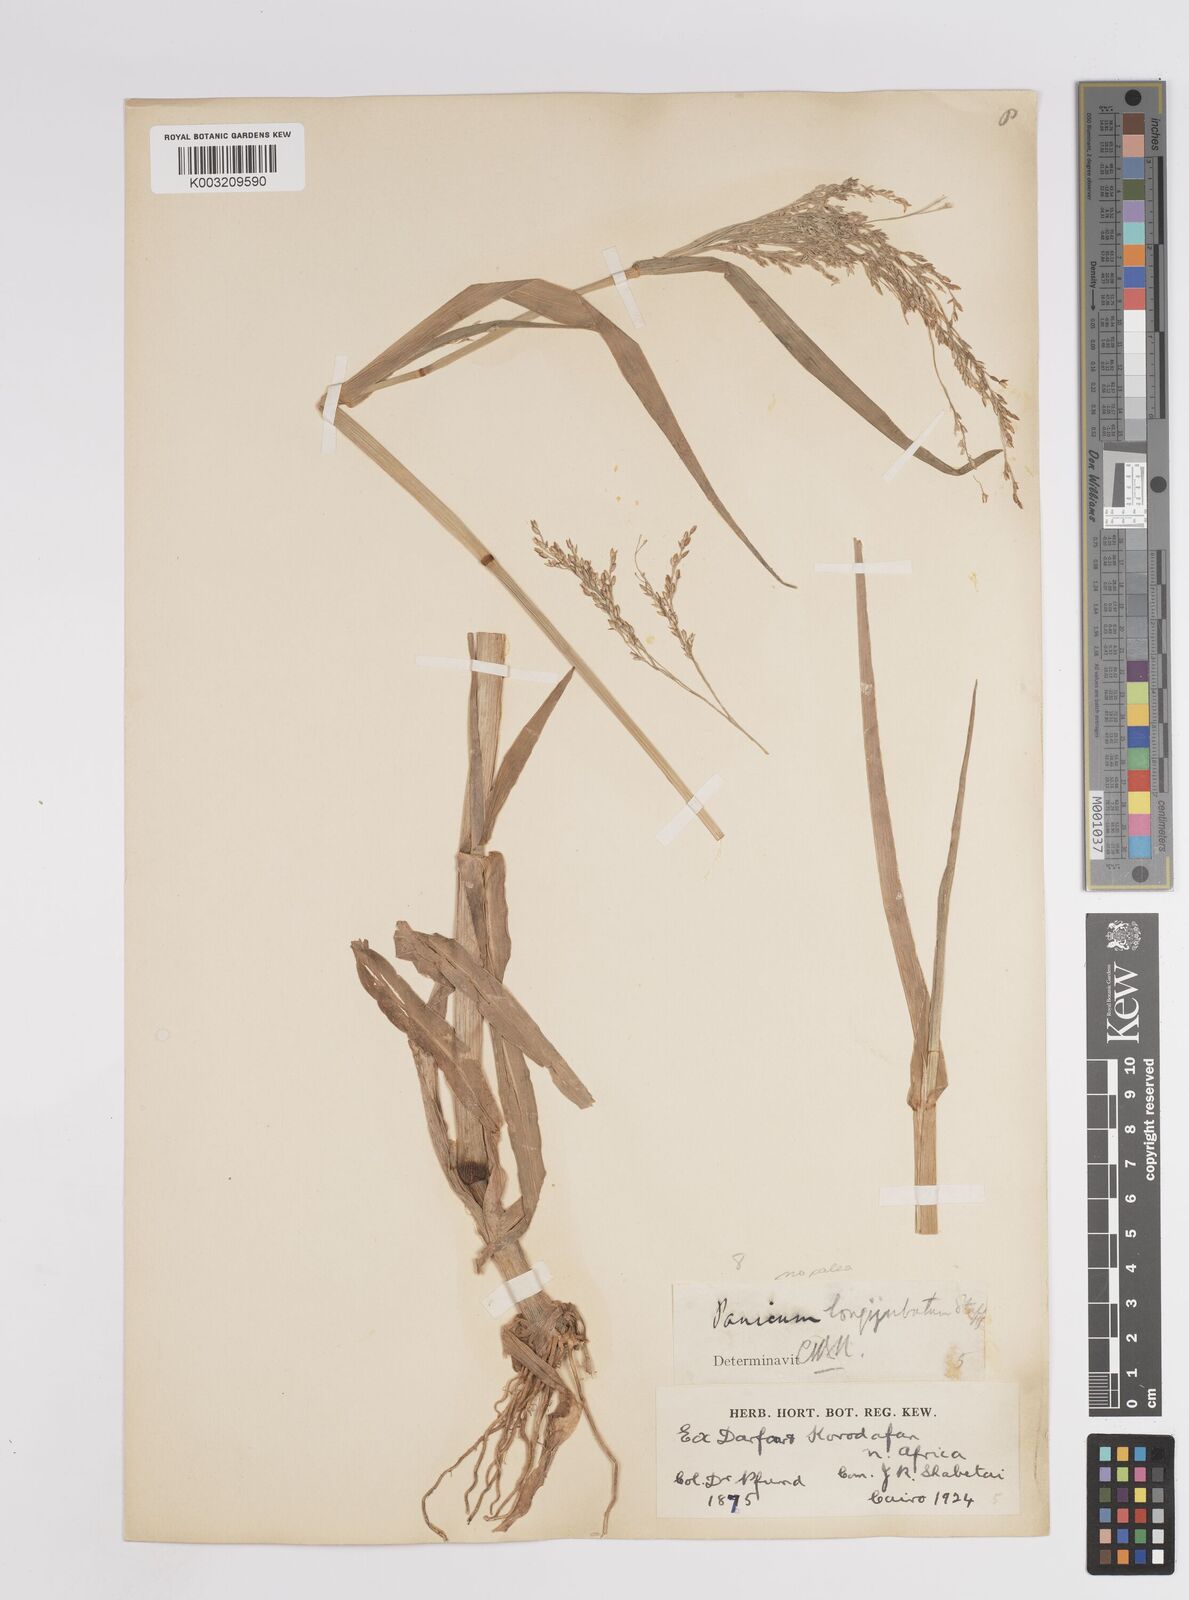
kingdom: Plantae
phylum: Tracheophyta
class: Liliopsida
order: Poales
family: Poaceae
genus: Panicum
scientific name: Panicum subalbidum
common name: Elbow buffalo grass
